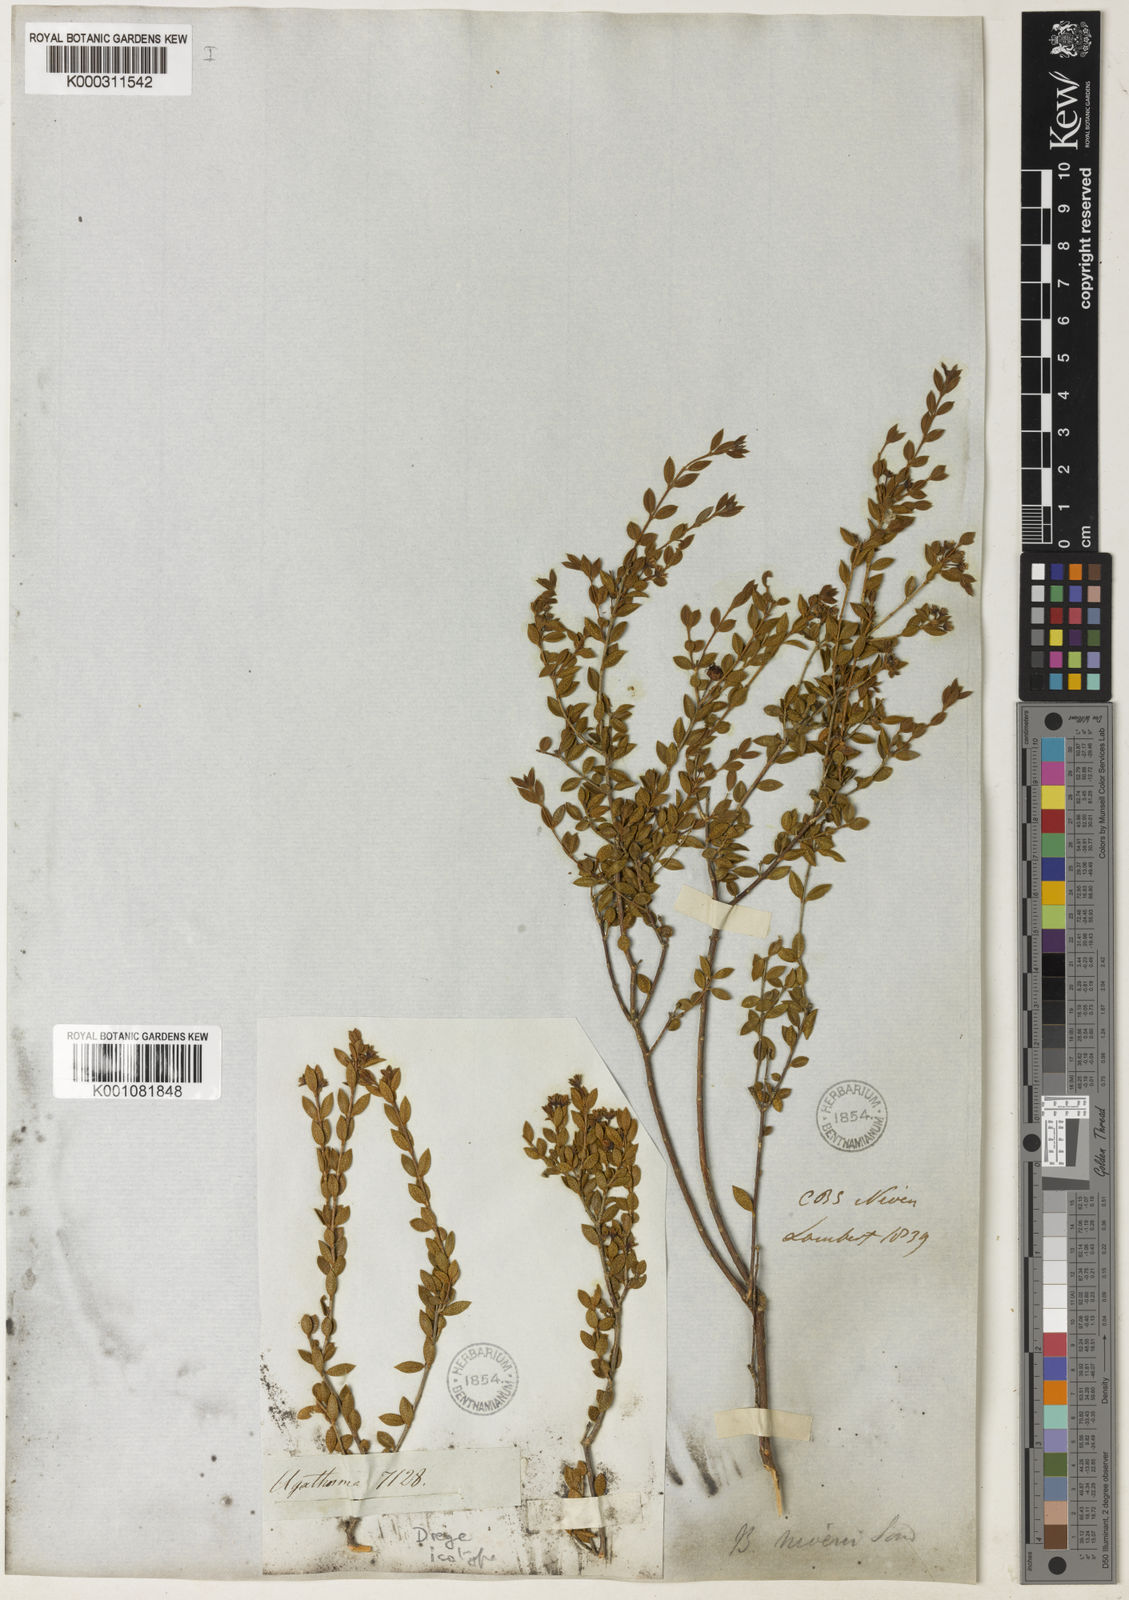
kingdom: Plantae
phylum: Tracheophyta
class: Magnoliopsida
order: Sapindales
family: Rutaceae
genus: Agathosma
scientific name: Agathosma namaquensis
